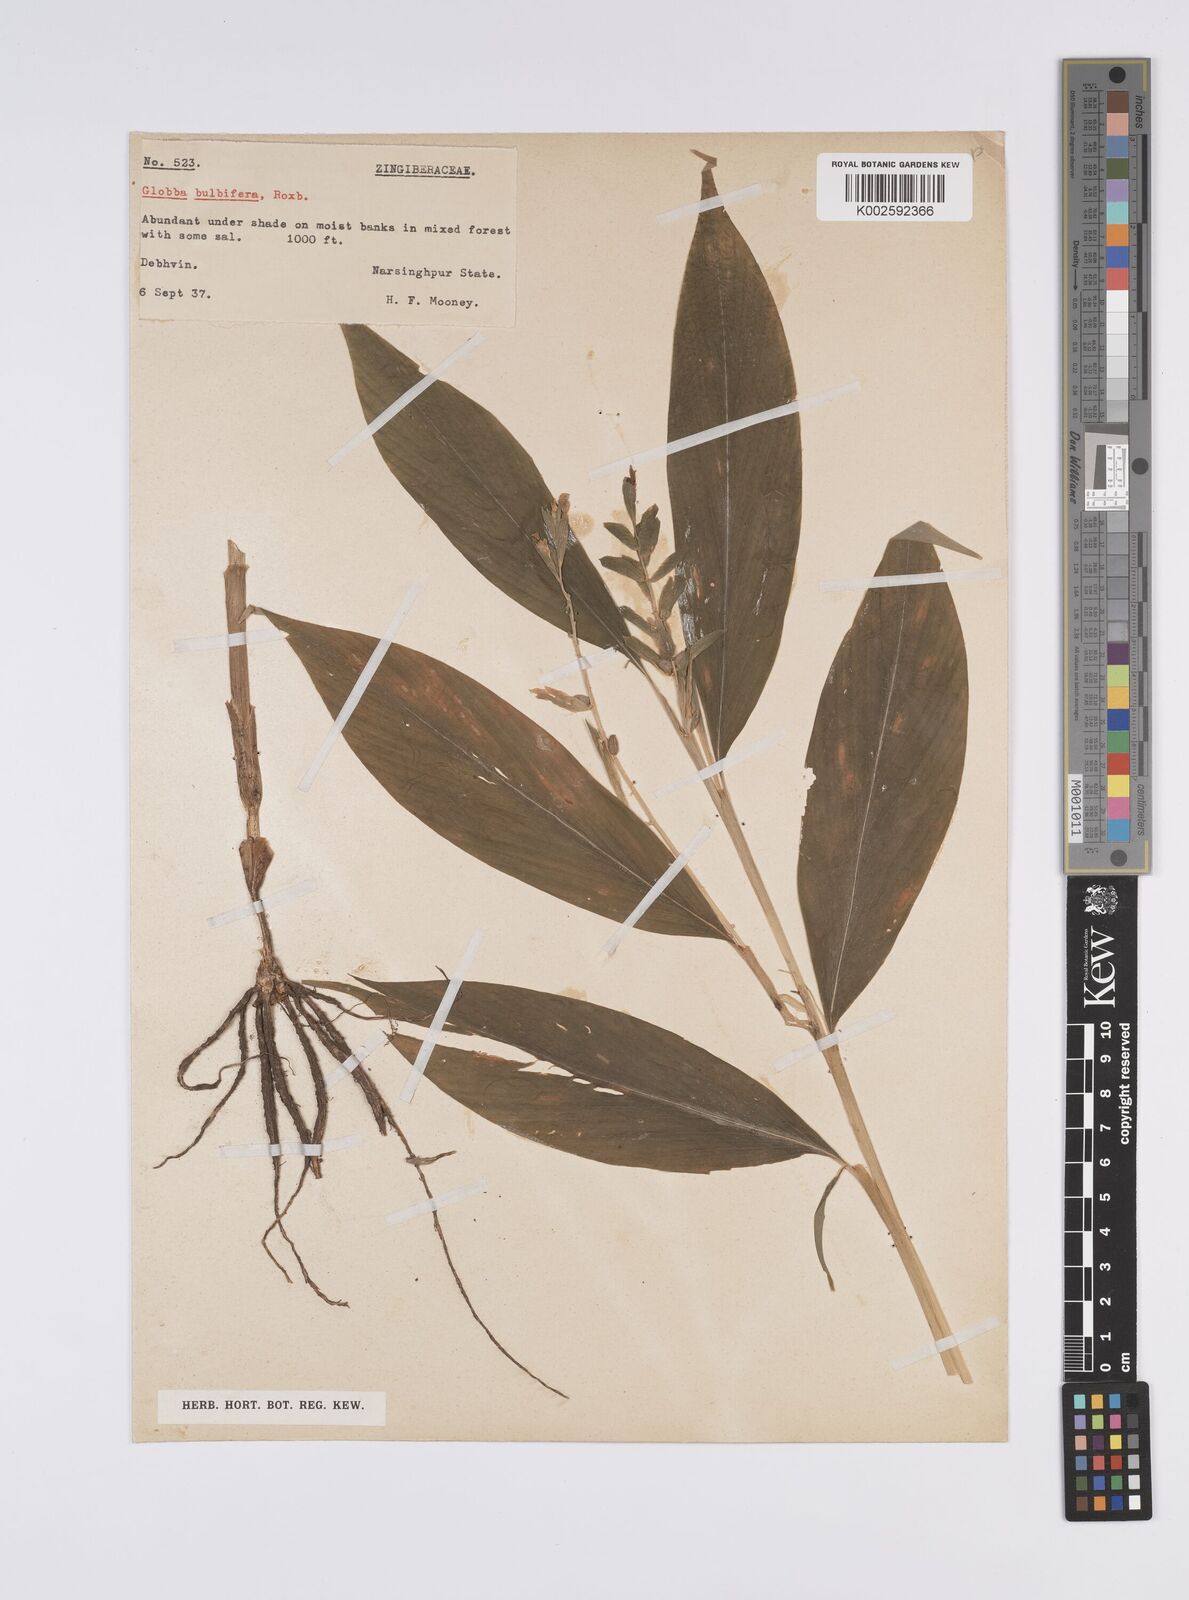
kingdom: Plantae
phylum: Tracheophyta
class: Liliopsida
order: Zingiberales
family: Zingiberaceae
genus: Globba
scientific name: Globba marantina
